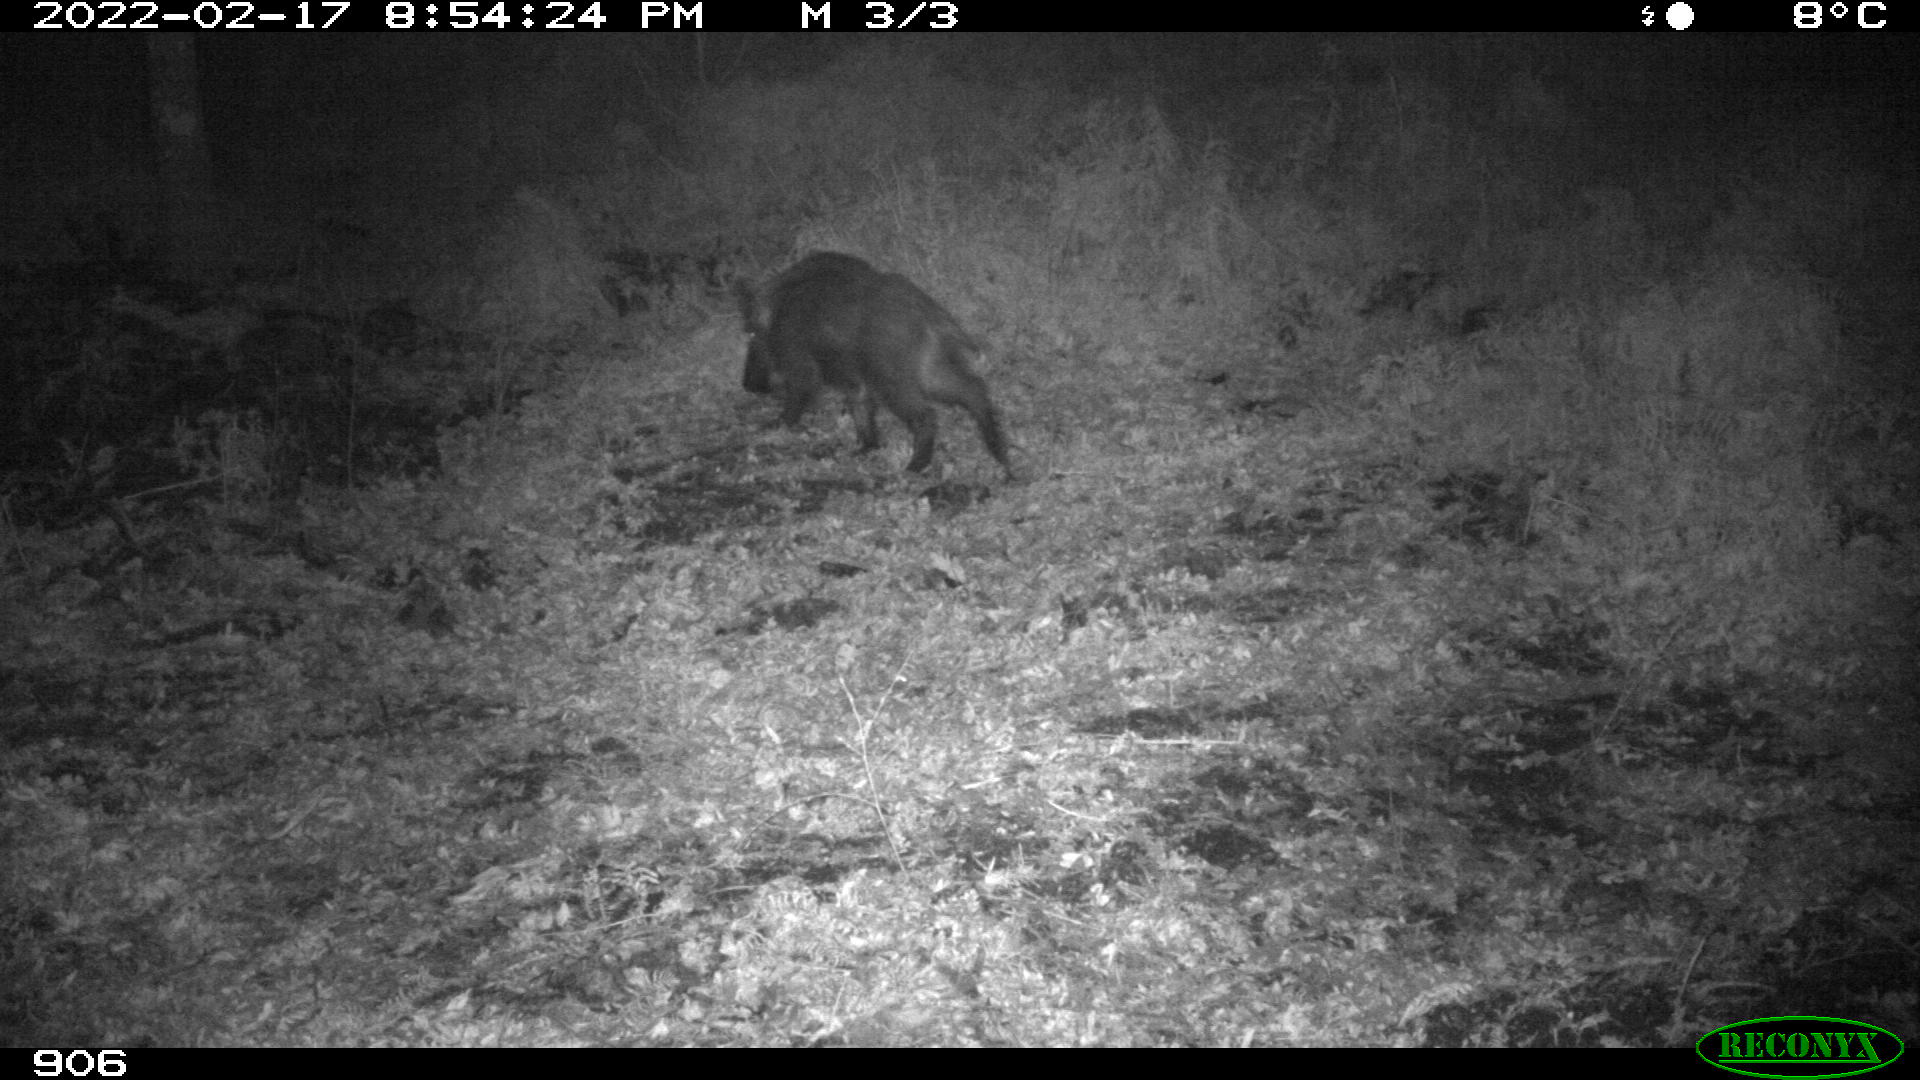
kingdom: Animalia
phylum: Chordata
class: Mammalia
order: Artiodactyla
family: Suidae
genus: Sus
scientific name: Sus scrofa
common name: Wild boar
